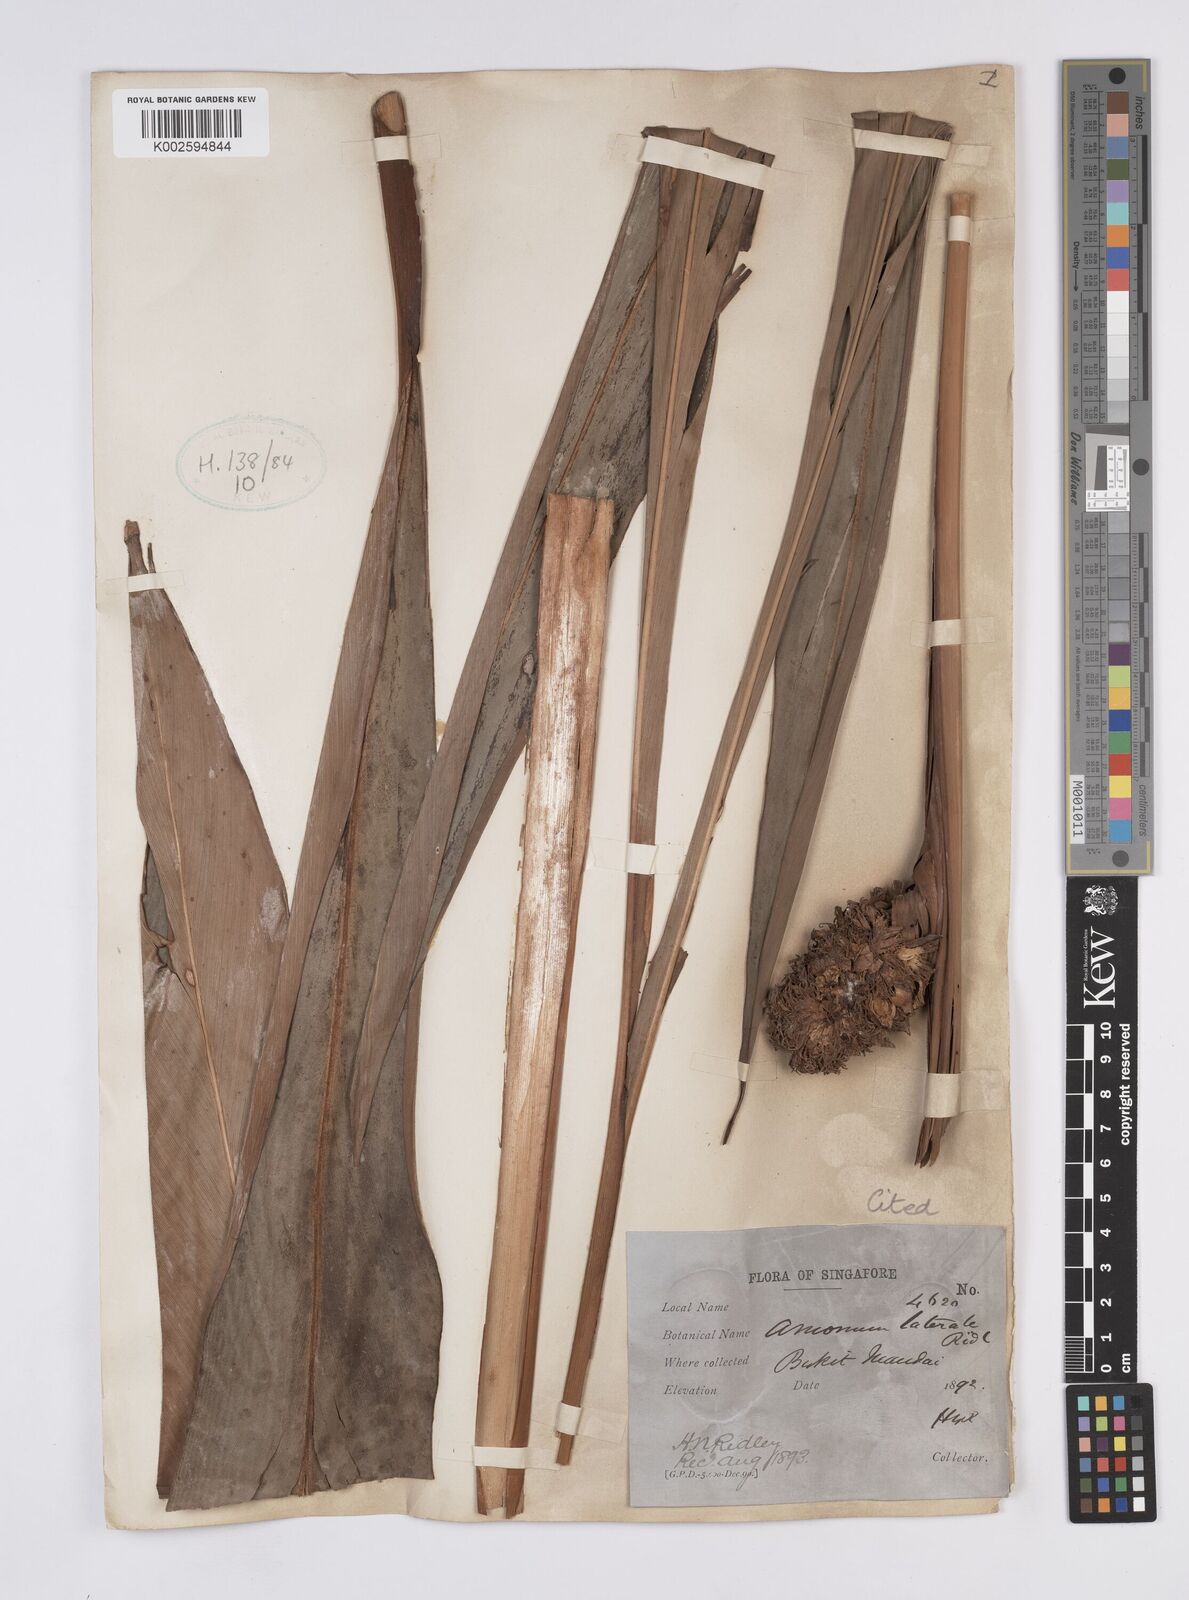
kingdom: Plantae
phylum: Tracheophyta
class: Liliopsida
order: Zingiberales
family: Zingiberaceae
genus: Plagiostachys
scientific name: Plagiostachys lateralis
